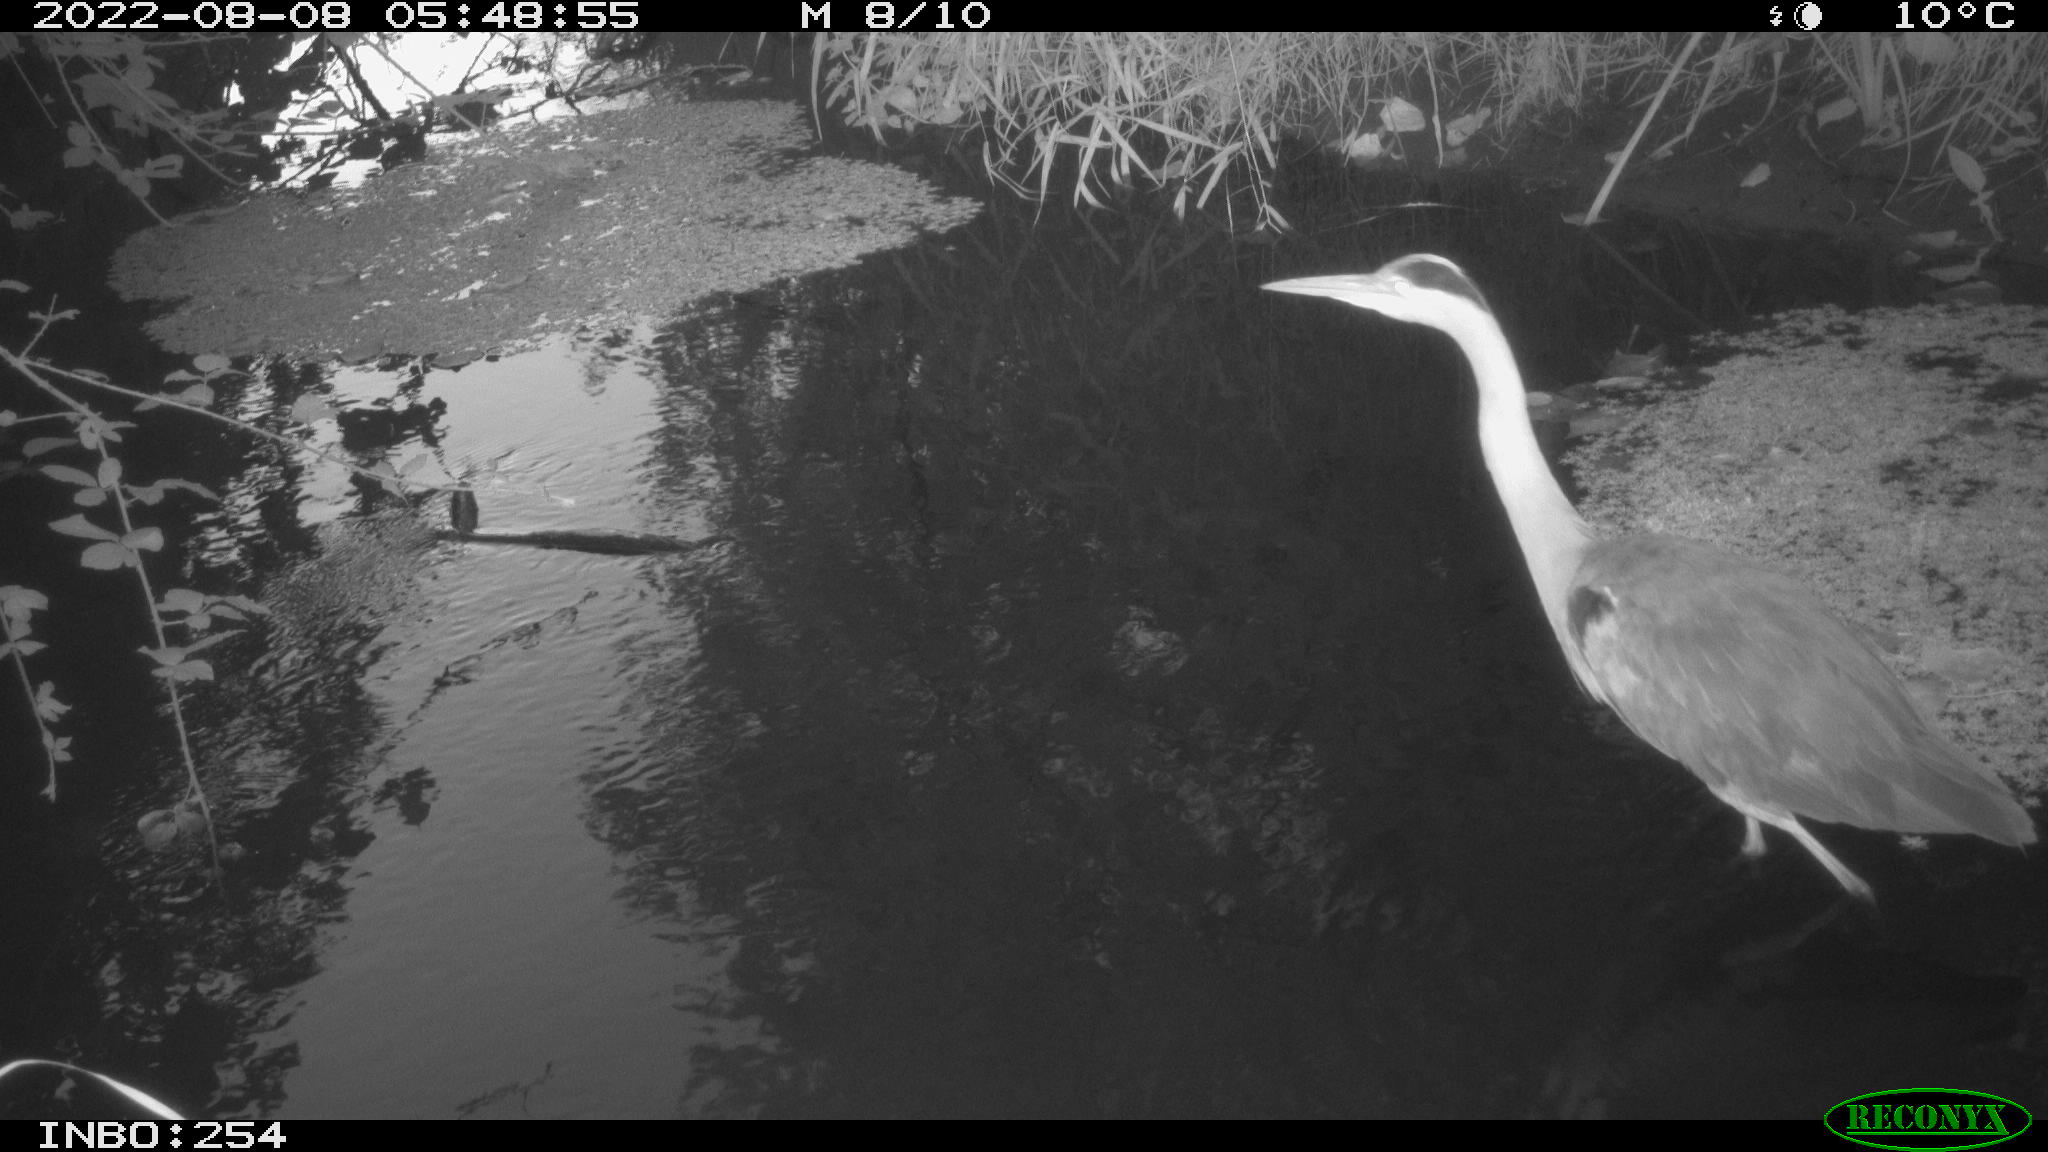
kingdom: Animalia
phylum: Chordata
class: Aves
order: Pelecaniformes
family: Ardeidae
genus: Ardea
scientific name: Ardea cinerea
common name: Grey heron
